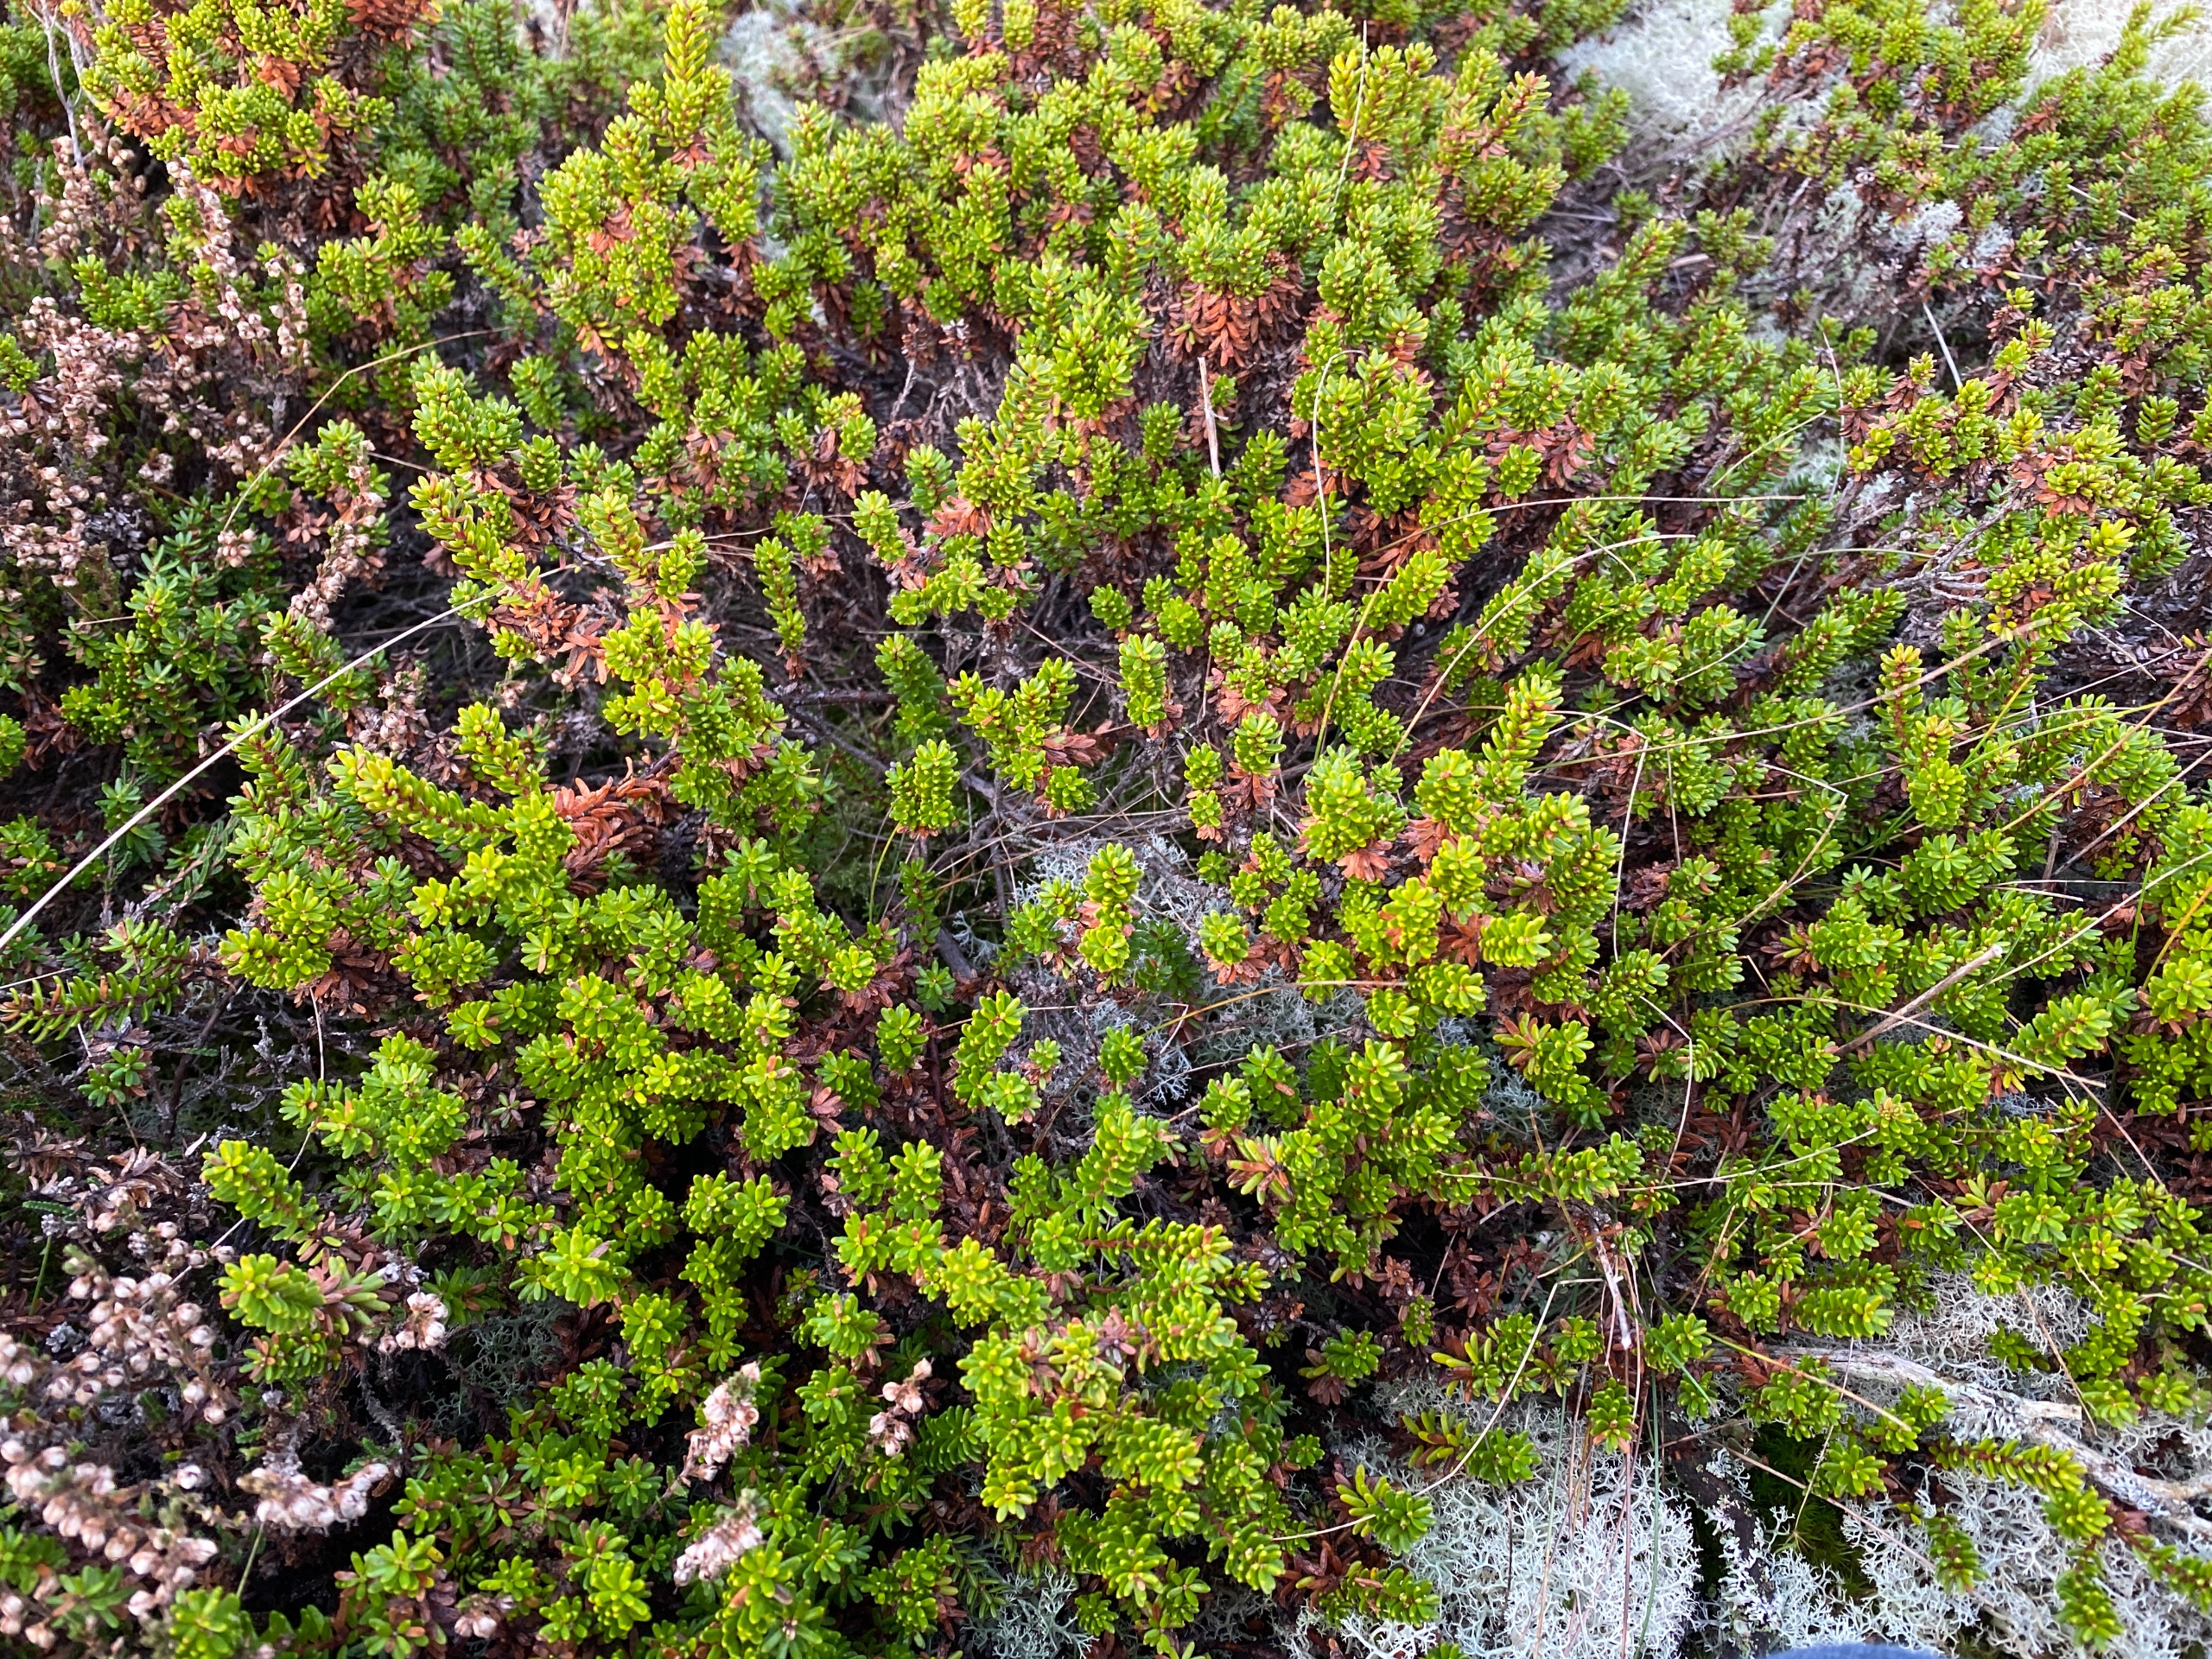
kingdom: Plantae
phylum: Tracheophyta
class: Magnoliopsida
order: Ericales
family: Ericaceae
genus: Empetrum
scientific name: Empetrum nigrum
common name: Revling
